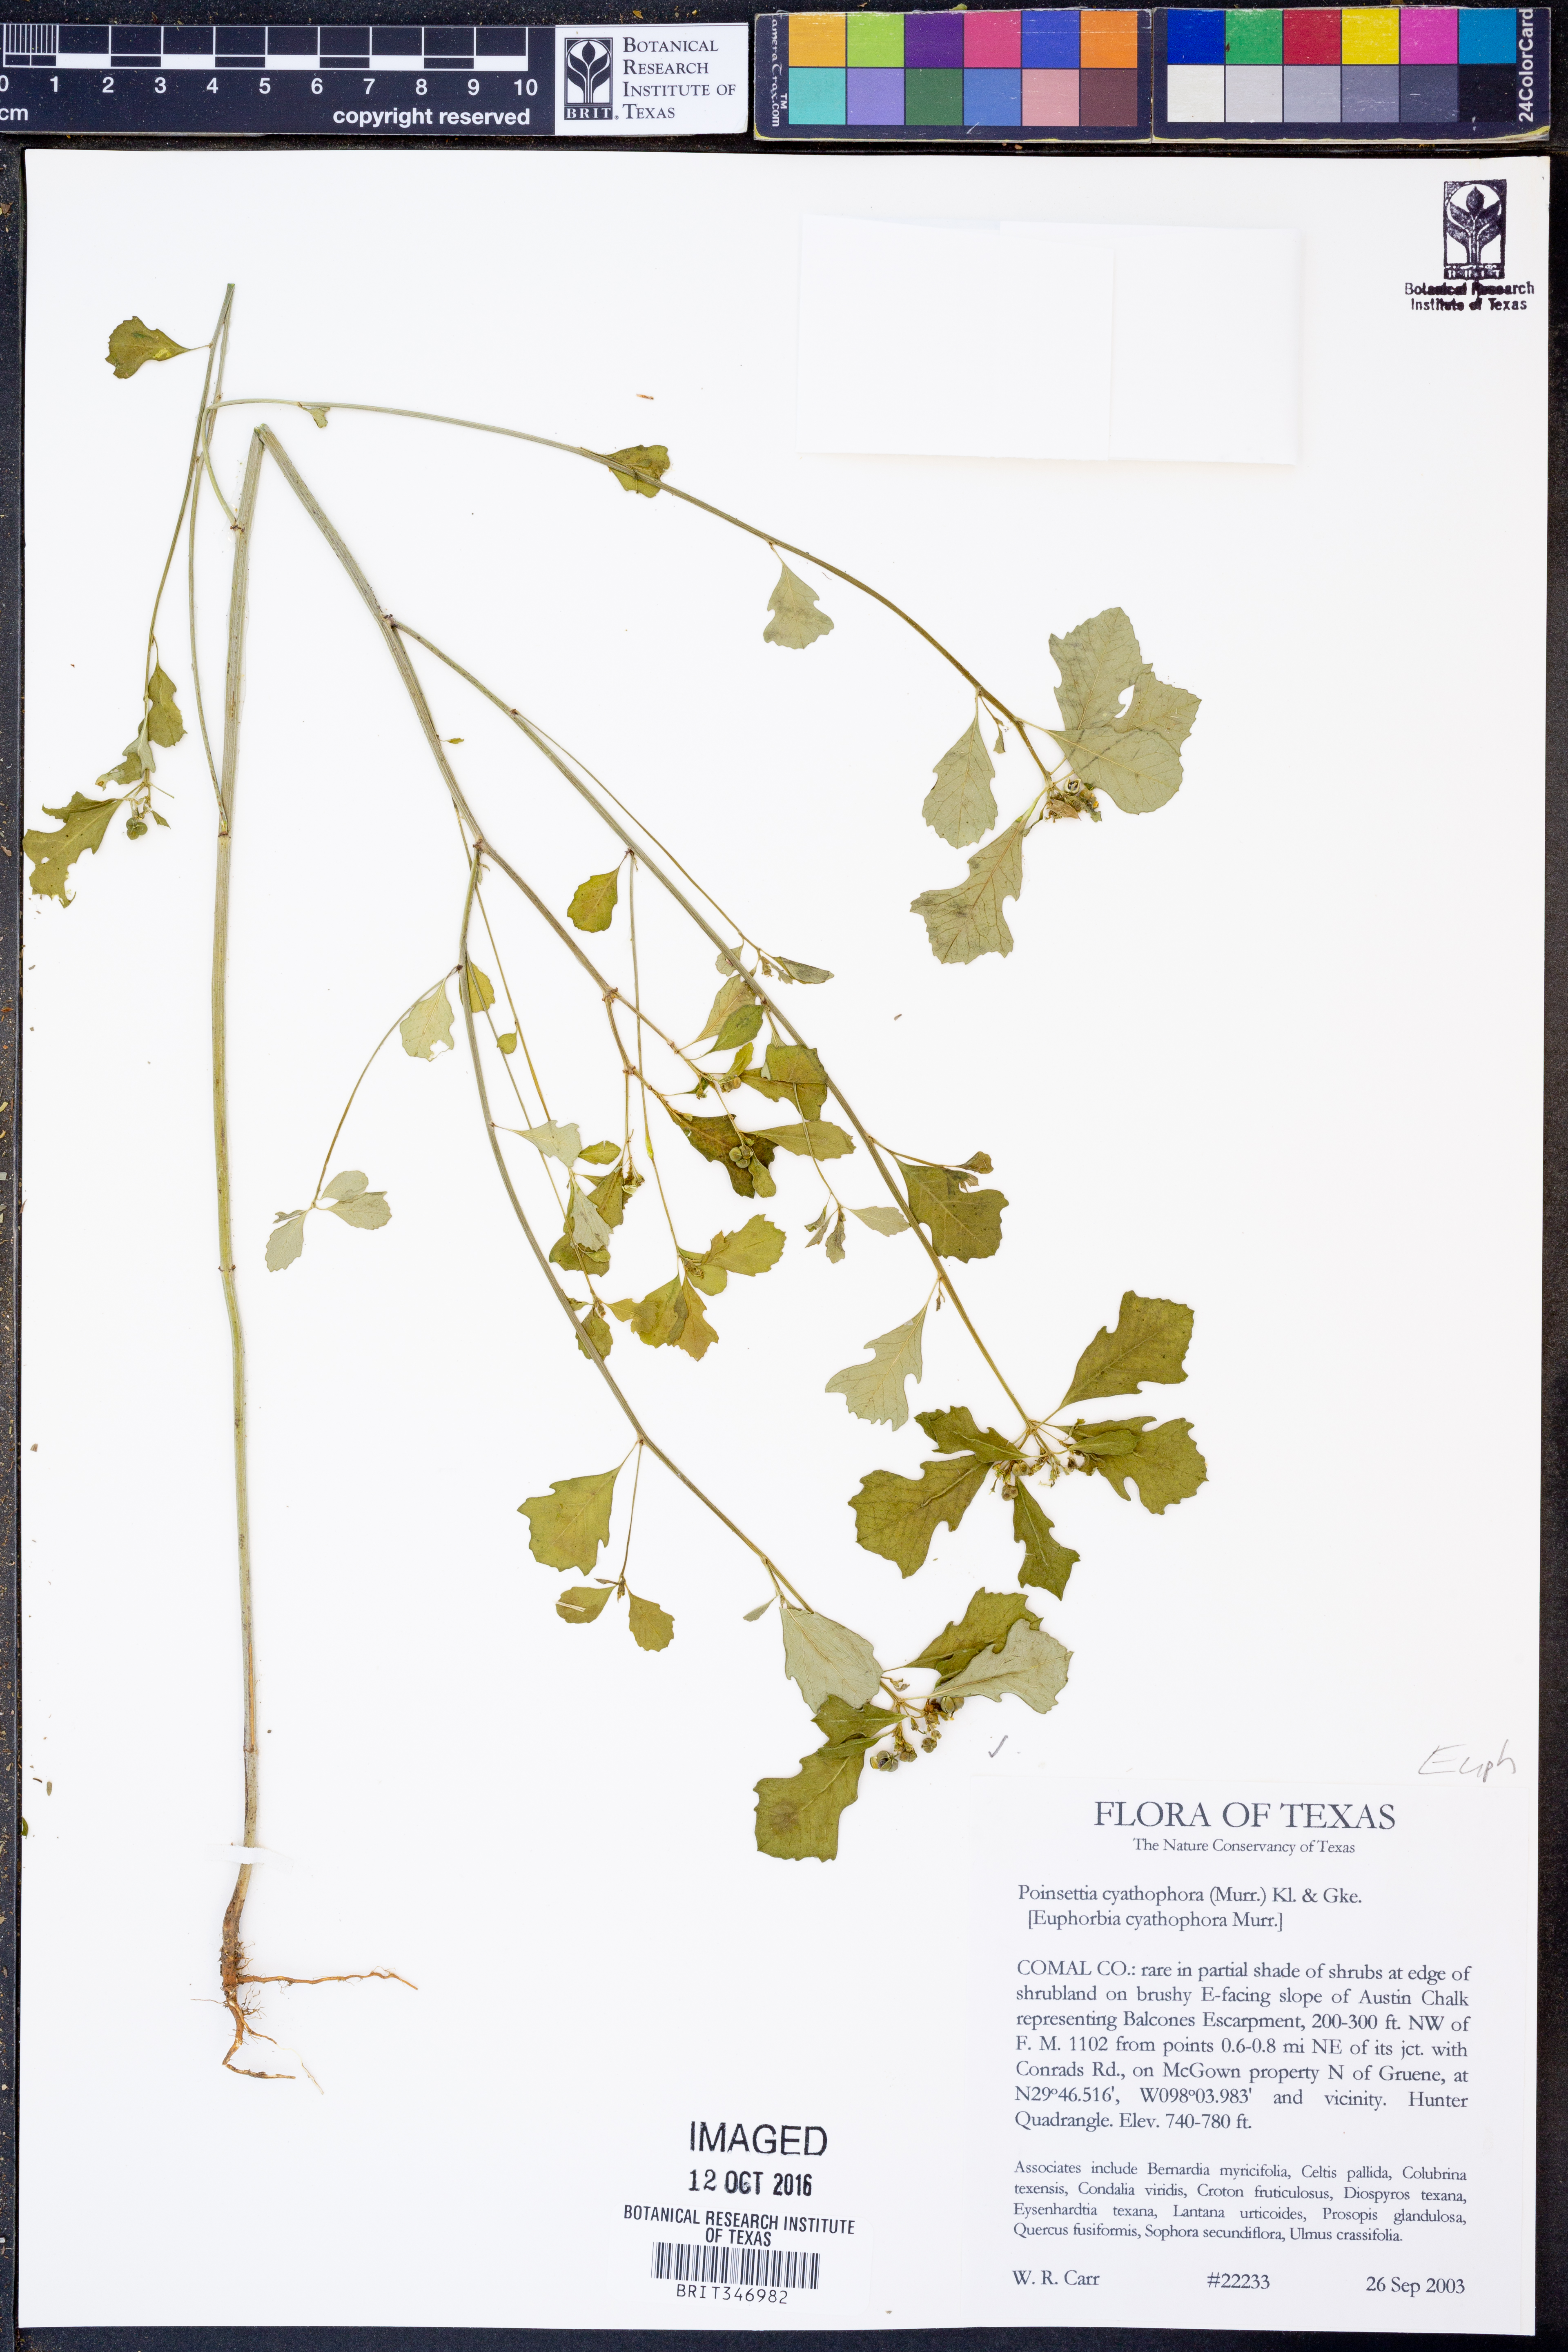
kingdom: Plantae
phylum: Tracheophyta
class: Magnoliopsida
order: Malpighiales
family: Euphorbiaceae
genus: Euphorbia
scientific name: Euphorbia heterophylla
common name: Mexican fireplant
